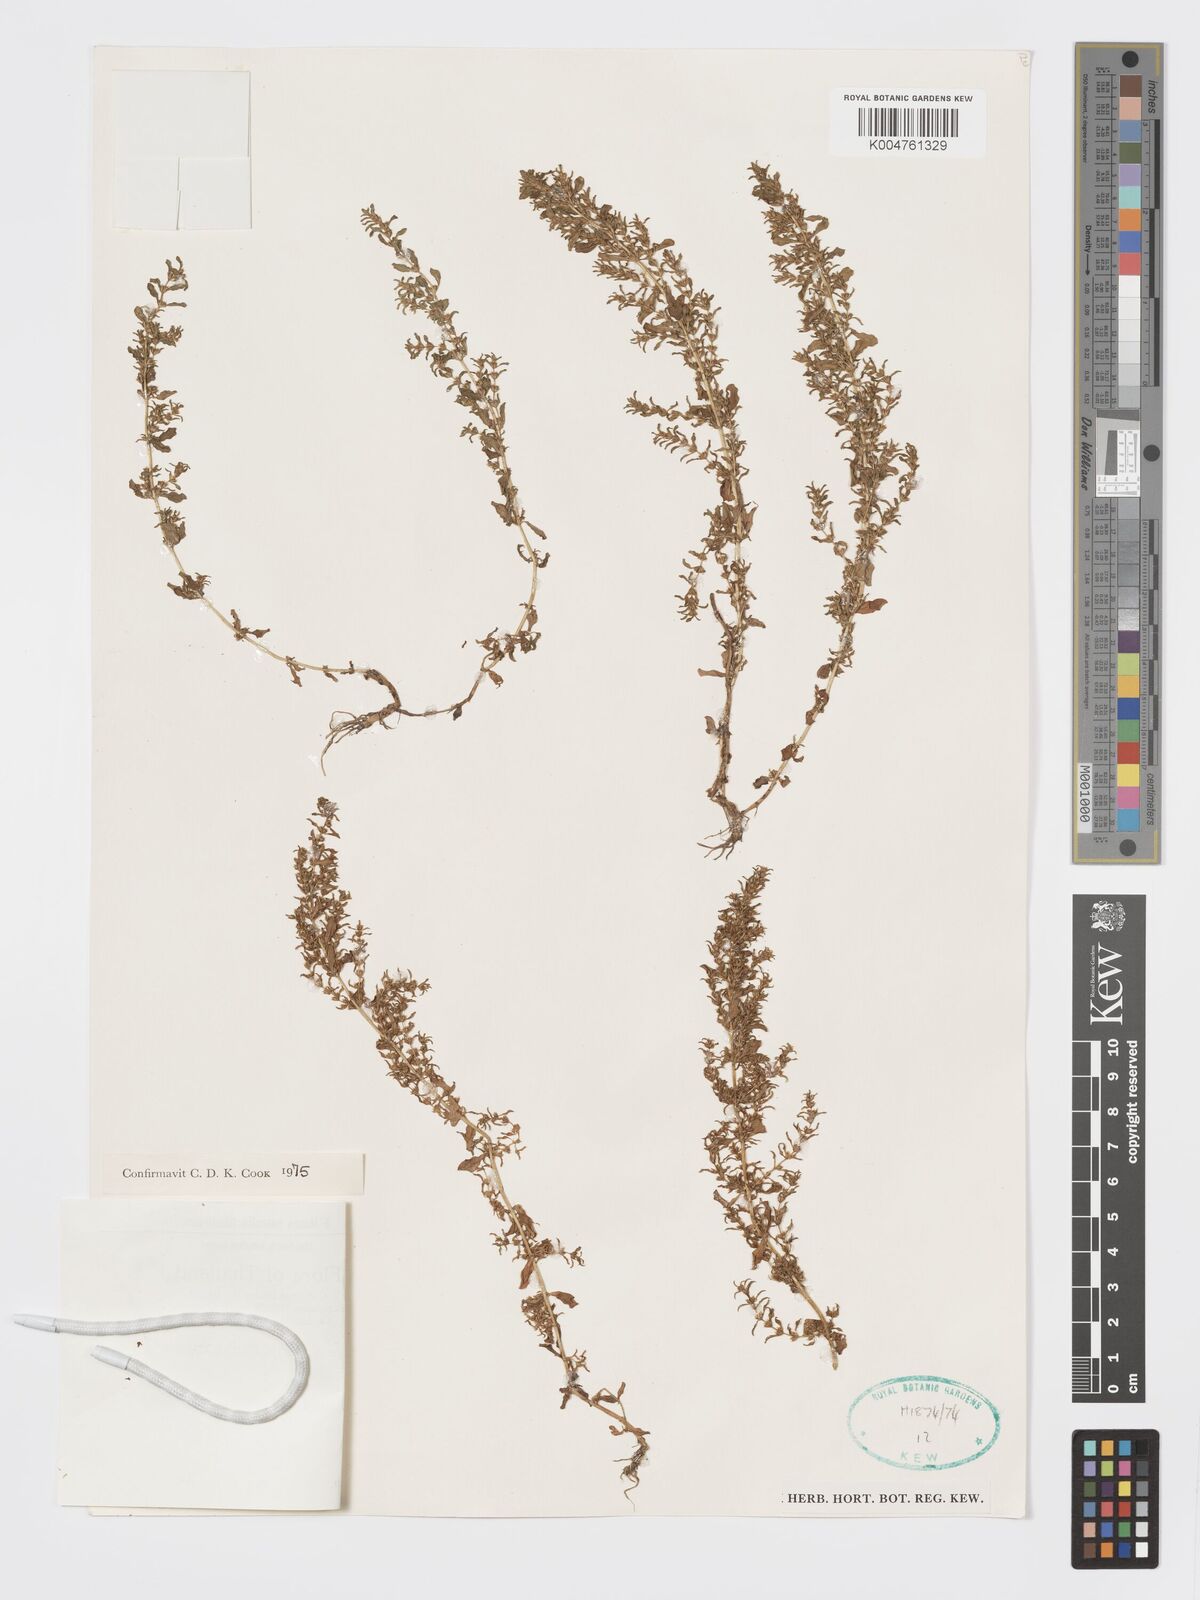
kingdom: Plantae
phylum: Tracheophyta
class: Magnoliopsida
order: Myrtales
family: Lythraceae
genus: Rotala
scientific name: Rotala indica
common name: Indian toothcup
